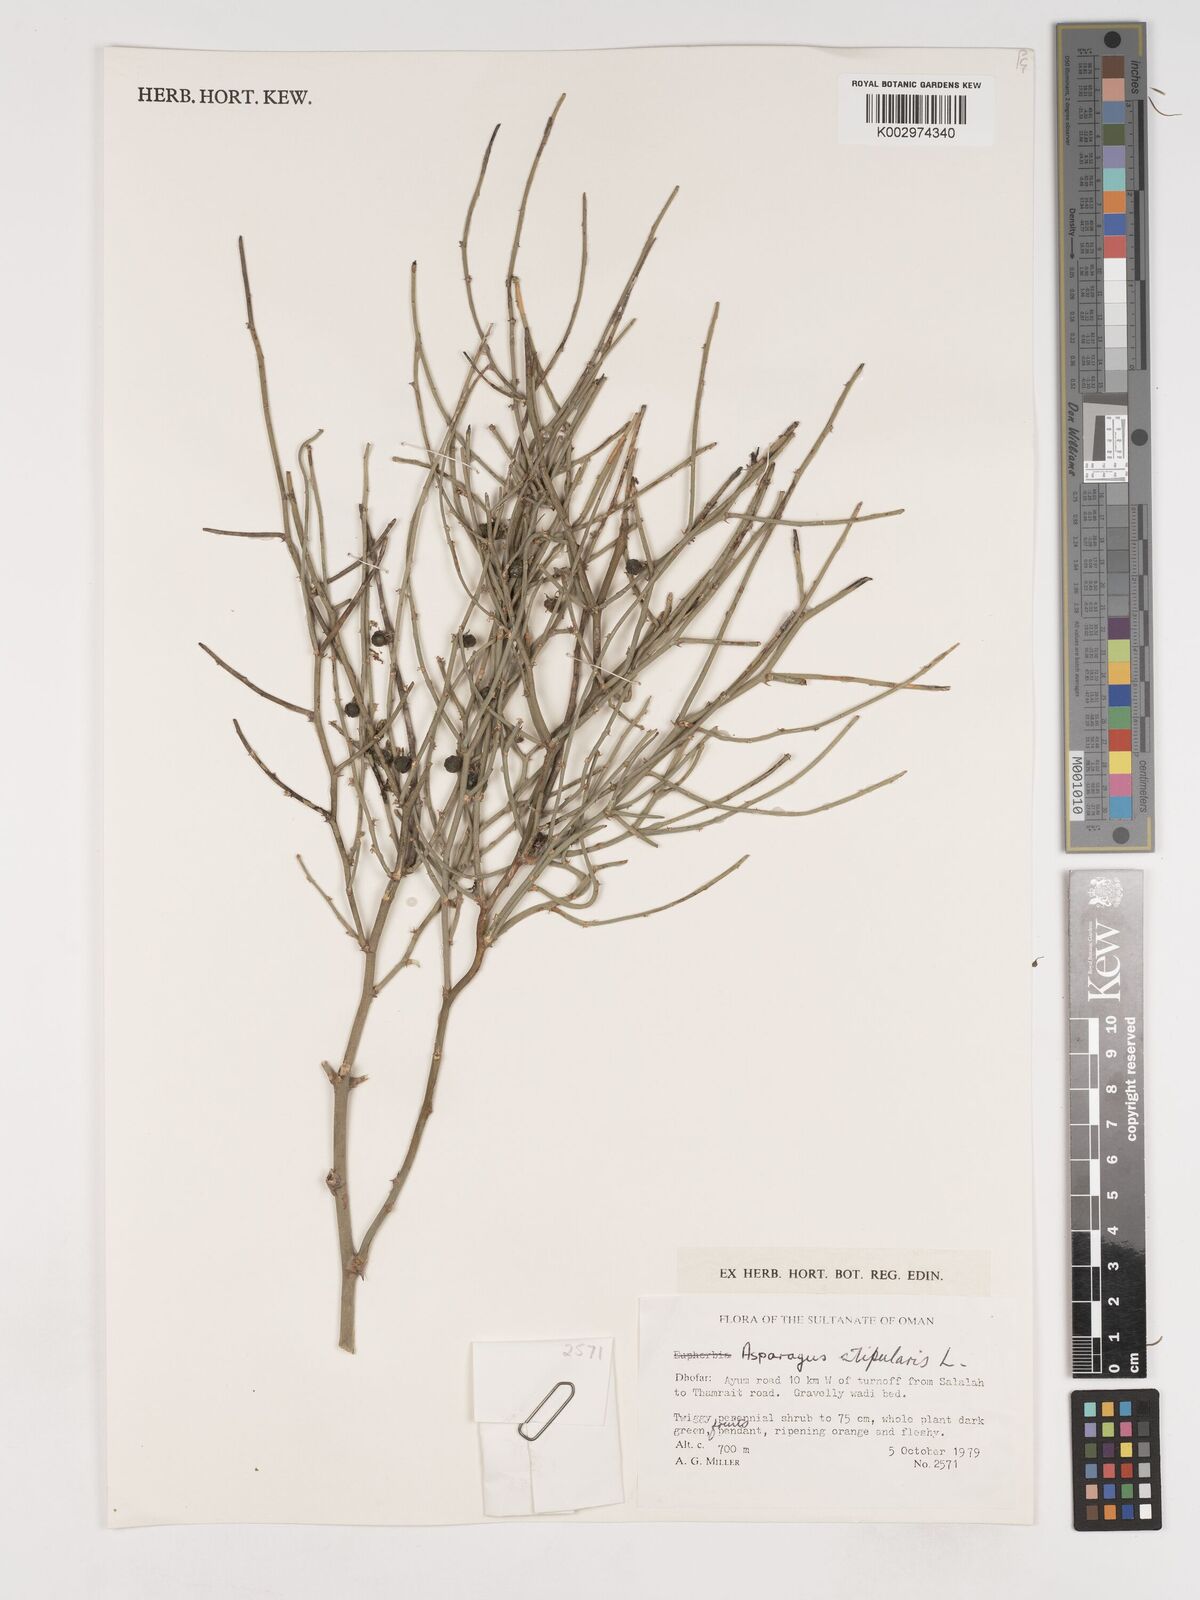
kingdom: Plantae
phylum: Tracheophyta
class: Liliopsida
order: Asparagales
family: Asparagaceae
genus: Asparagus
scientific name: Asparagus horridus
